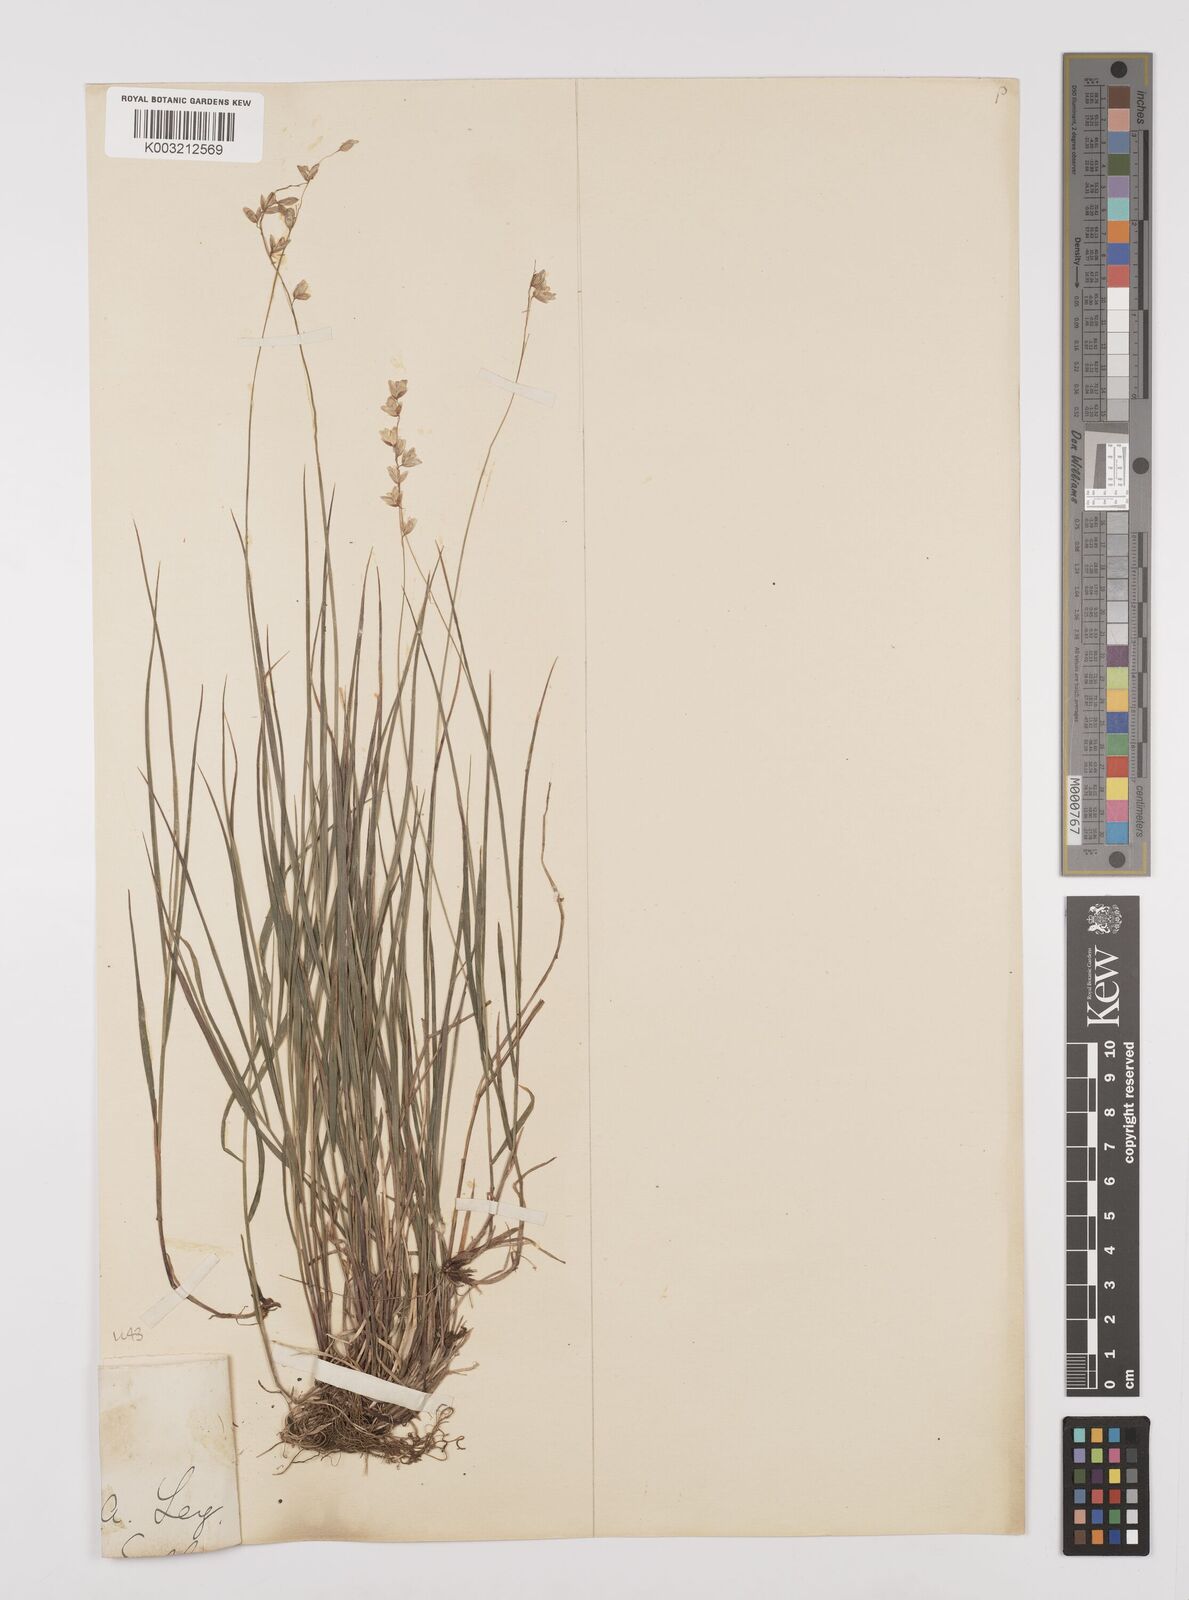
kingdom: Plantae
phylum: Tracheophyta
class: Liliopsida
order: Poales
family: Poaceae
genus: Melica
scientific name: Melica
